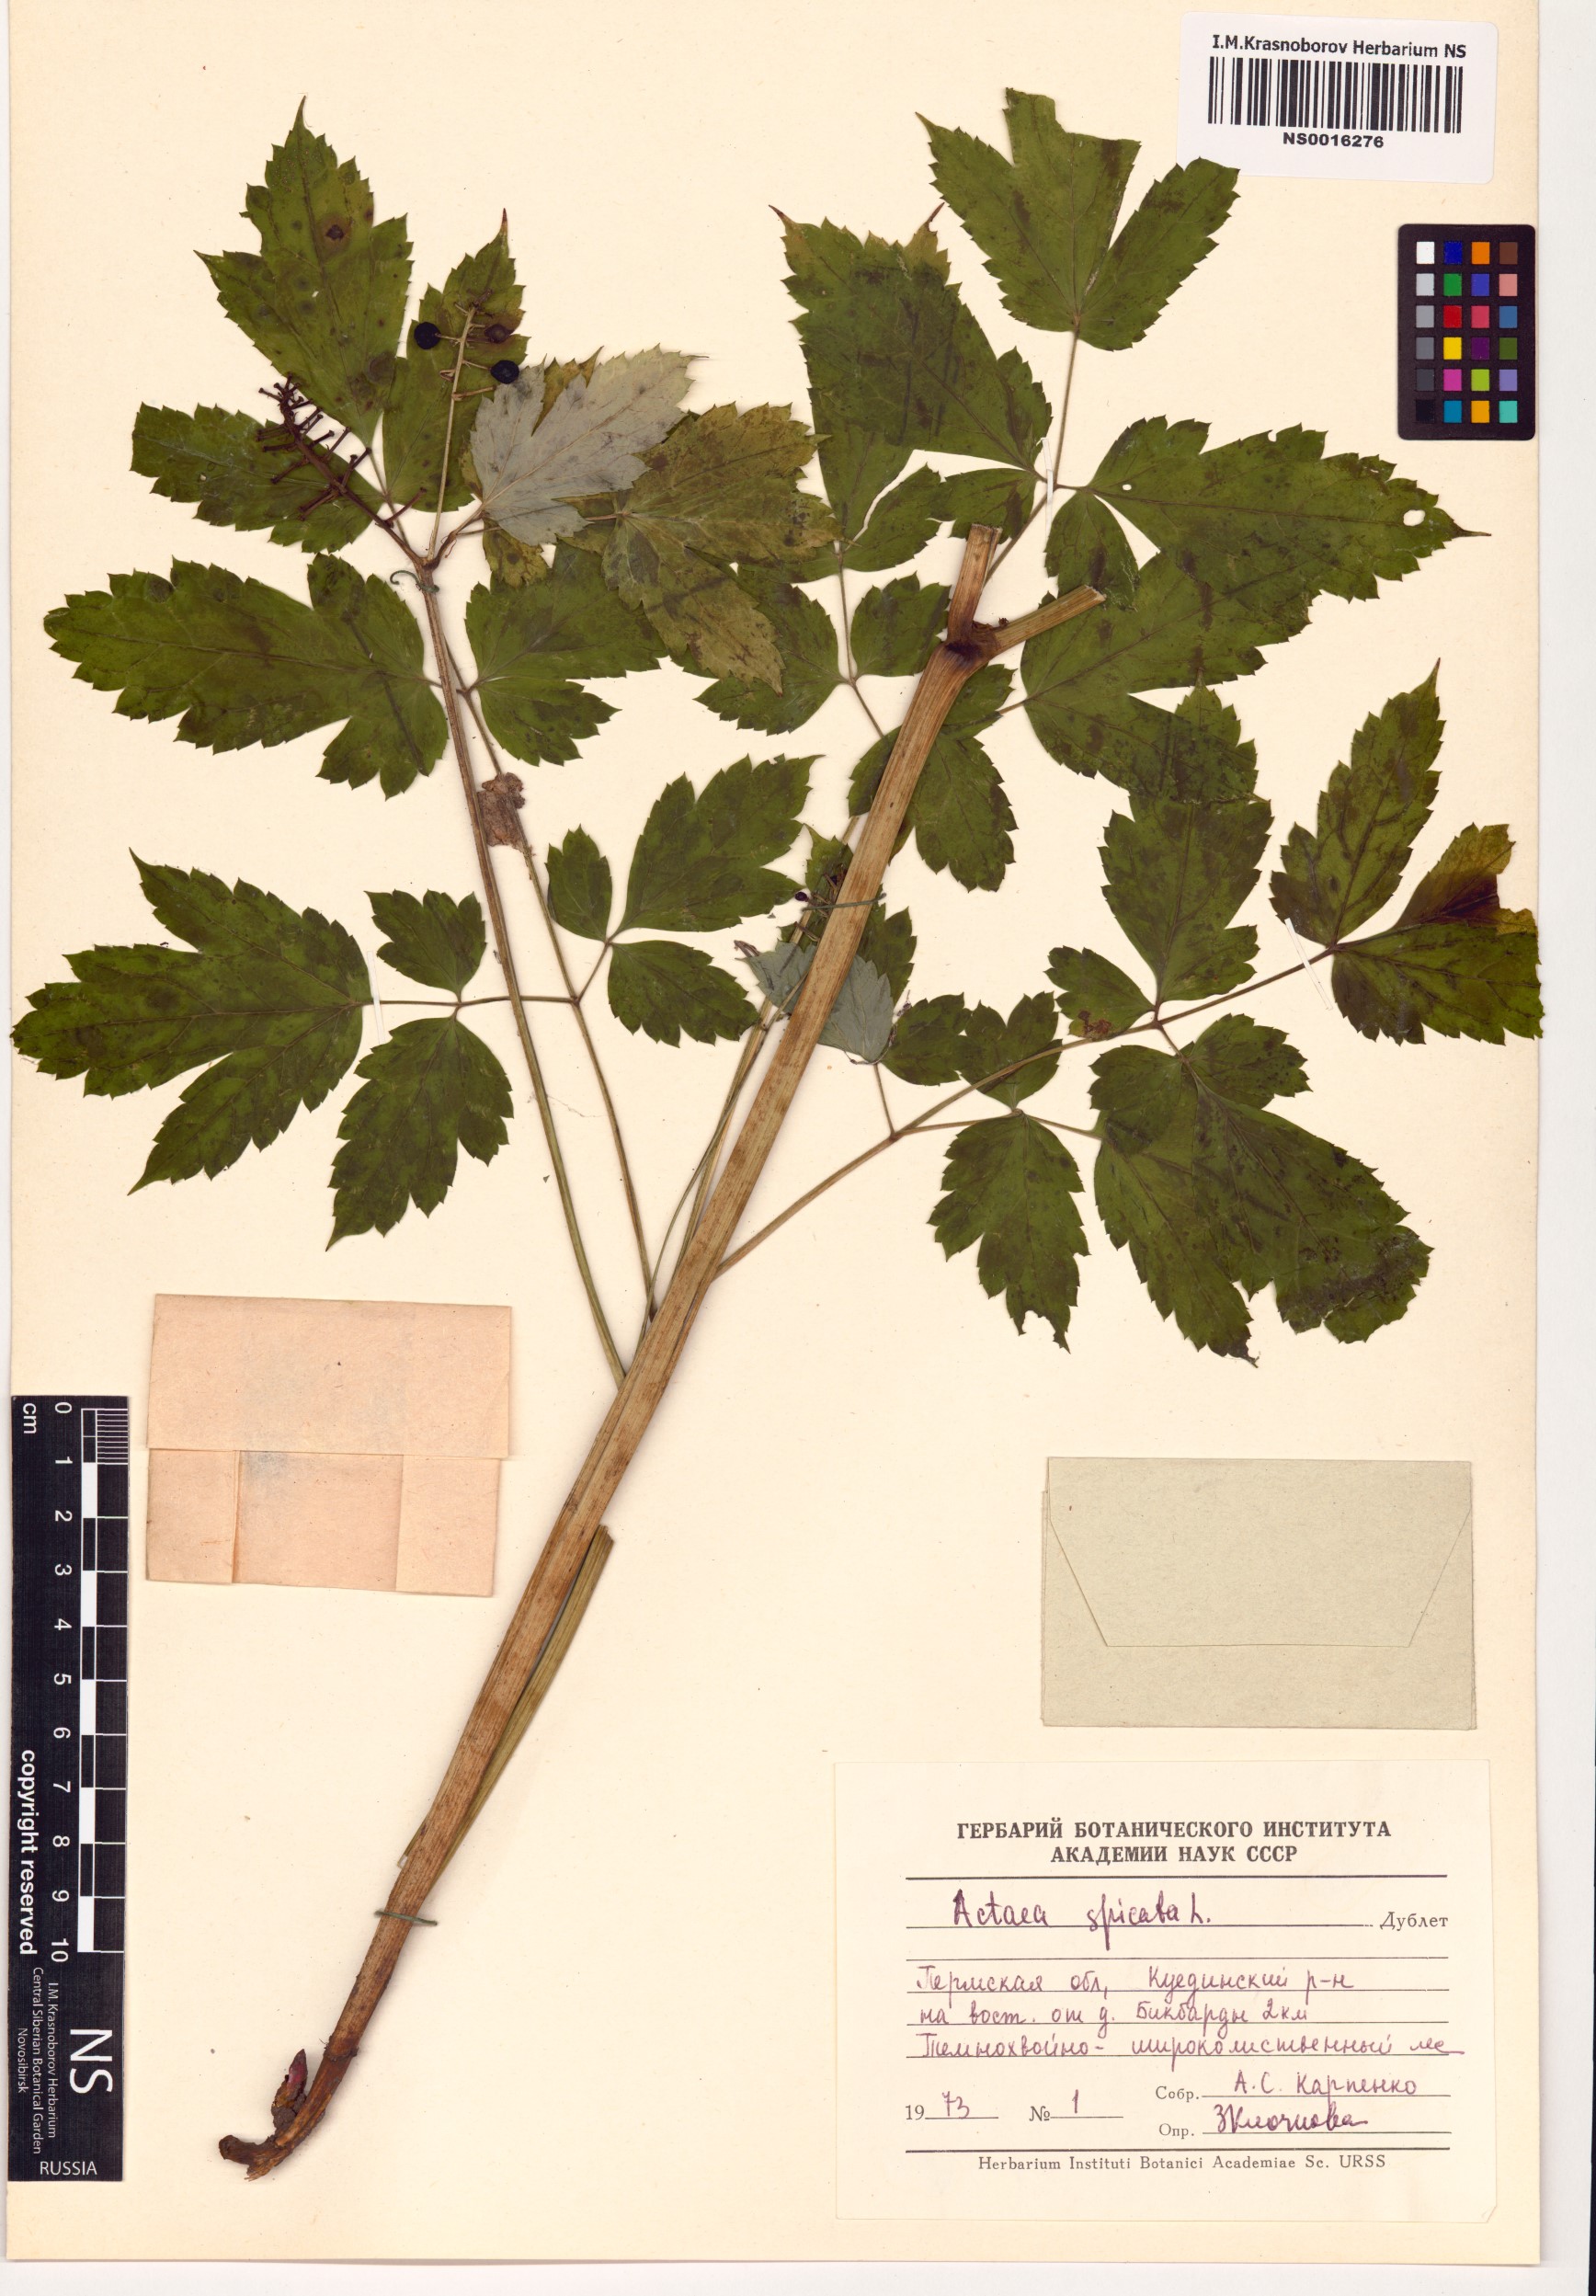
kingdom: Plantae
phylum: Tracheophyta
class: Magnoliopsida
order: Ranunculales
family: Ranunculaceae
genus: Actaea
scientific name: Actaea spicata
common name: Baneberry
